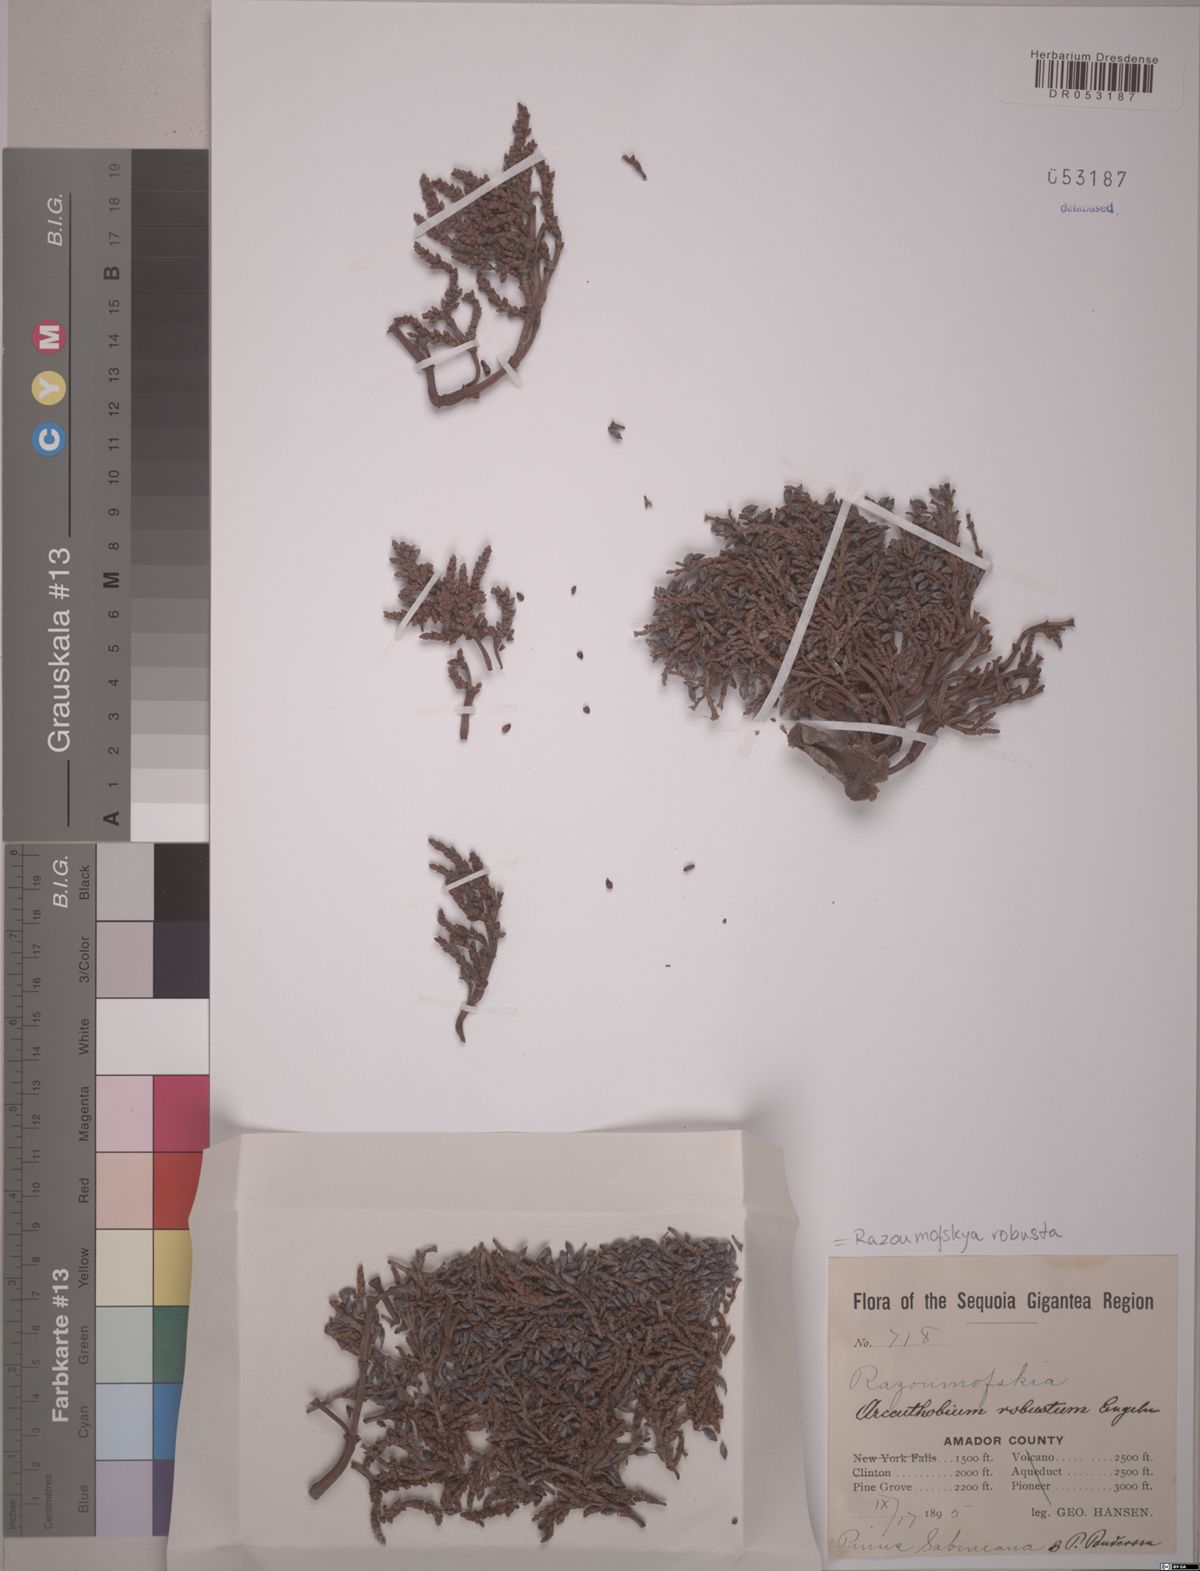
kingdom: Plantae
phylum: Tracheophyta
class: Magnoliopsida
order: Santalales
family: Viscaceae
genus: Arceuthobium
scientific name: Arceuthobium robustum
